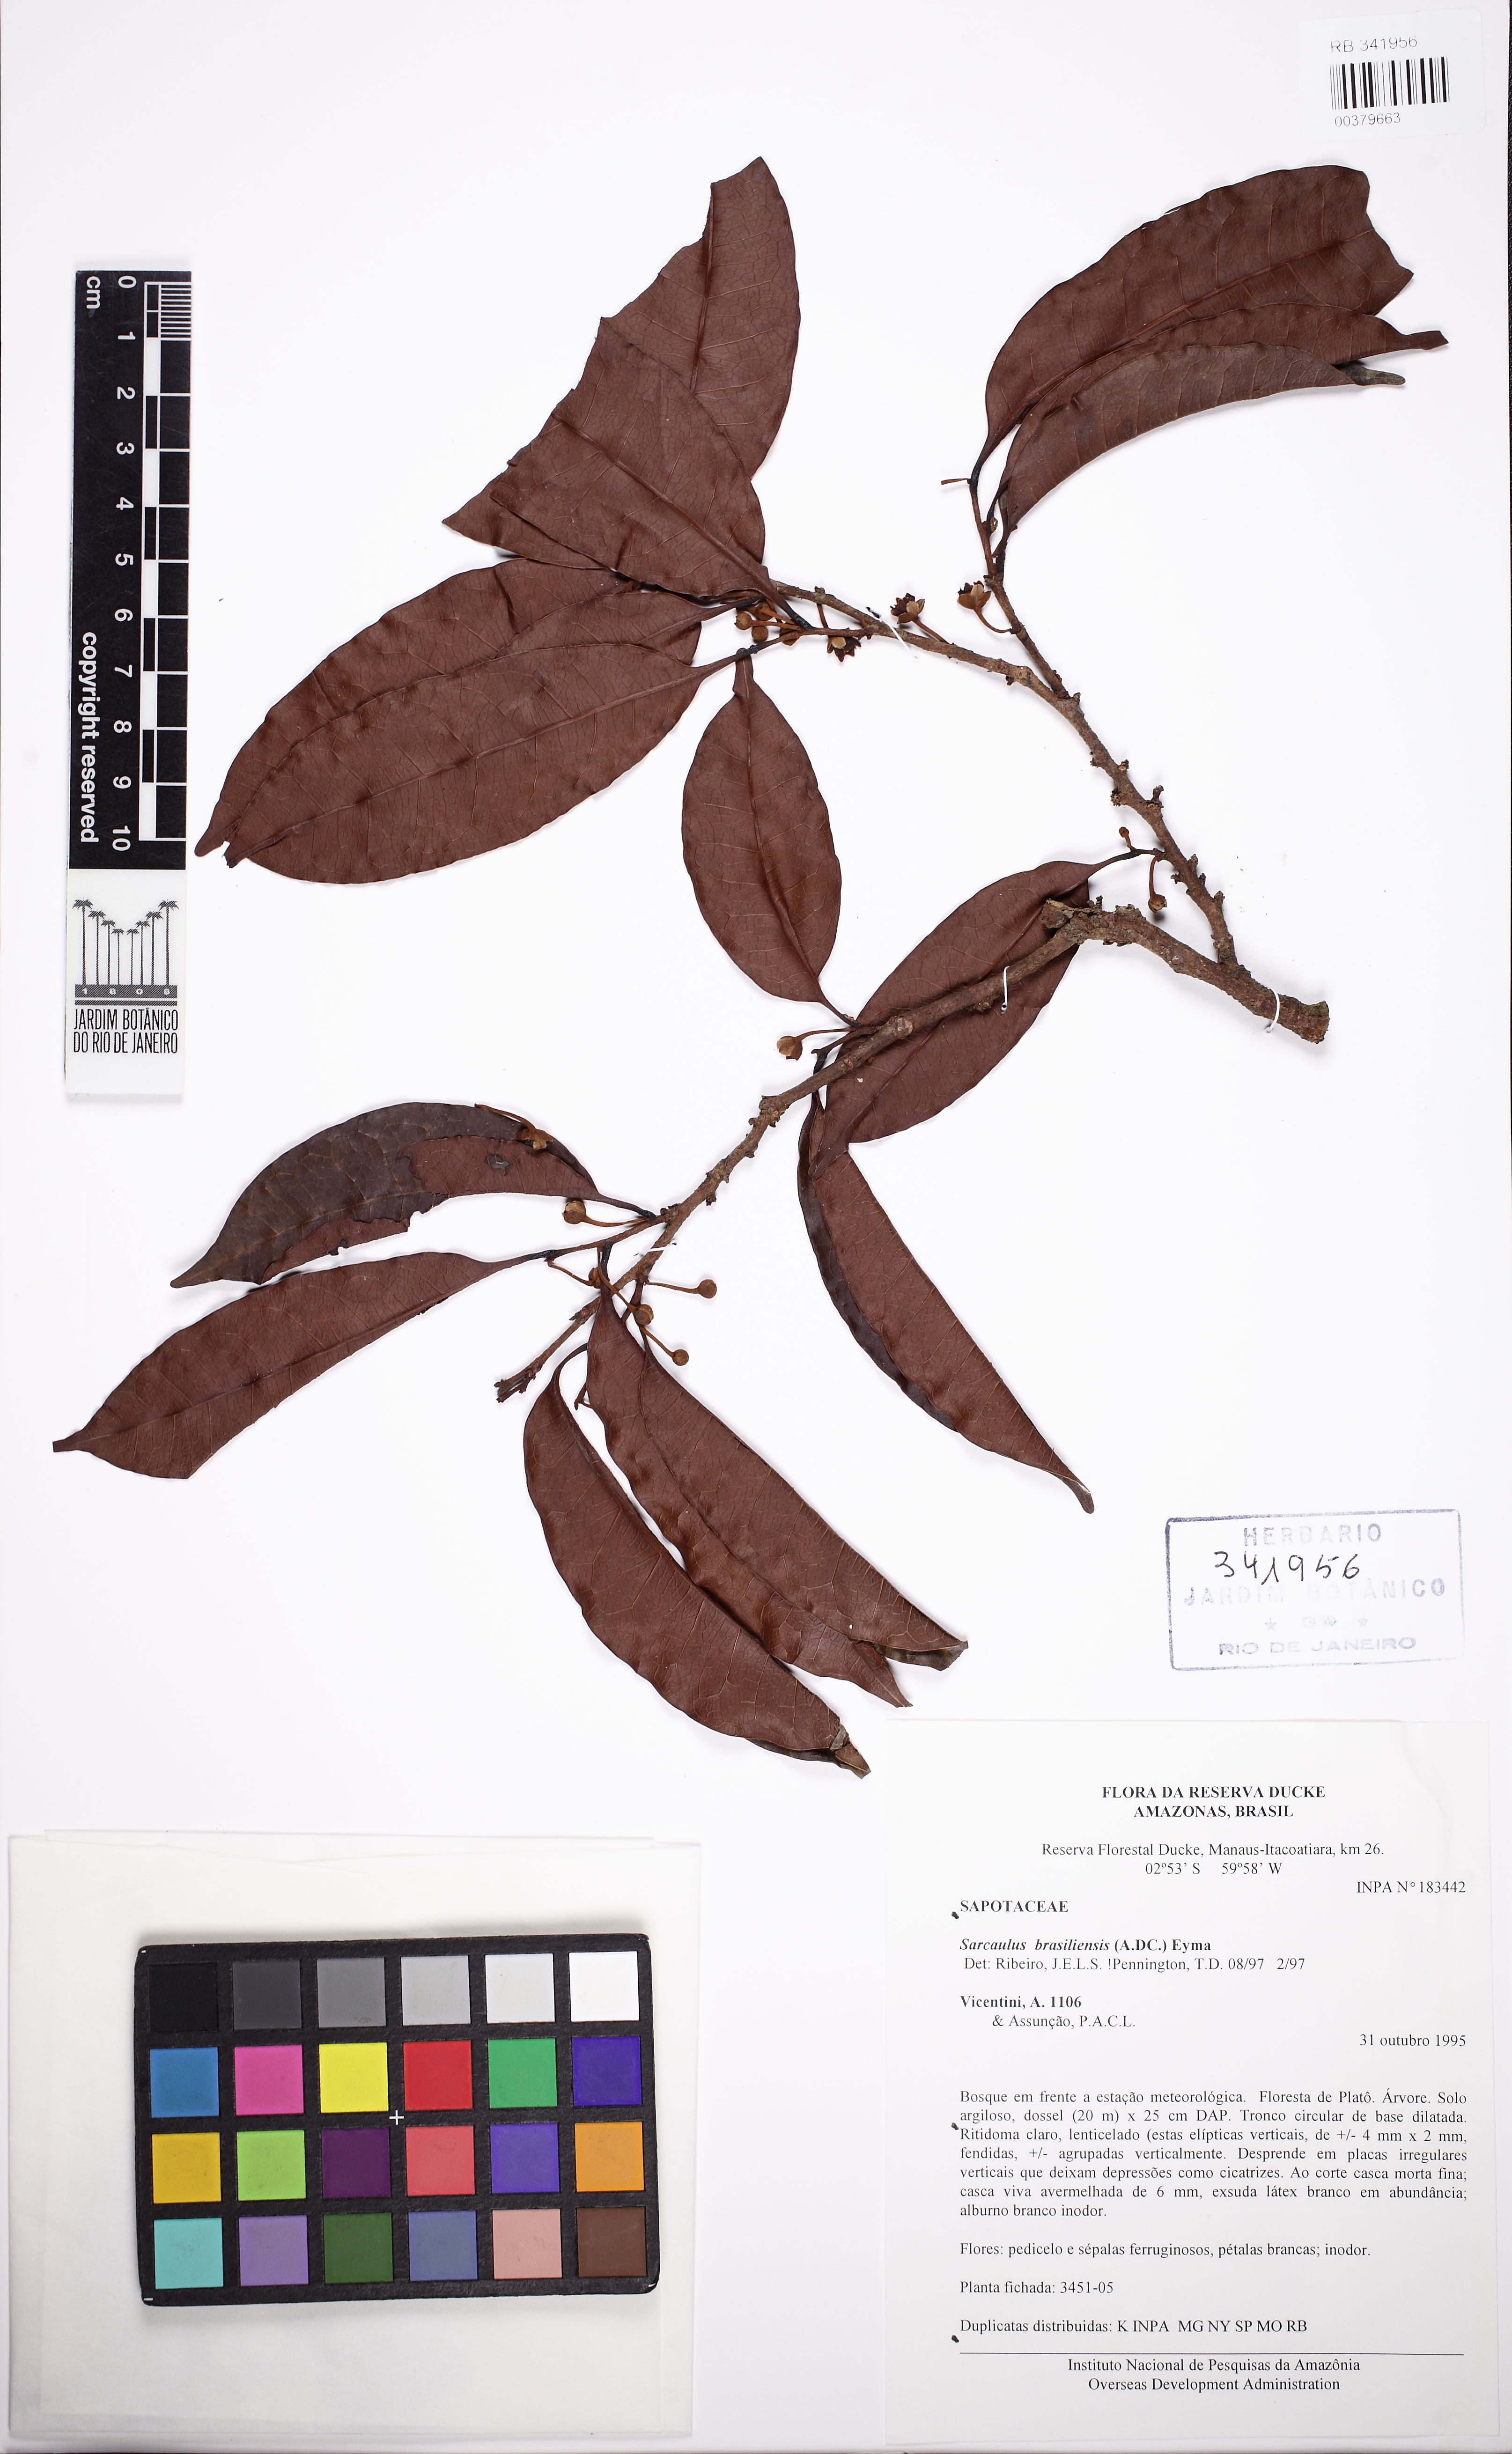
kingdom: Plantae
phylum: Tracheophyta
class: Magnoliopsida
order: Ericales
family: Sapotaceae
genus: Sarcaulus
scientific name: Sarcaulus brasiliensis
